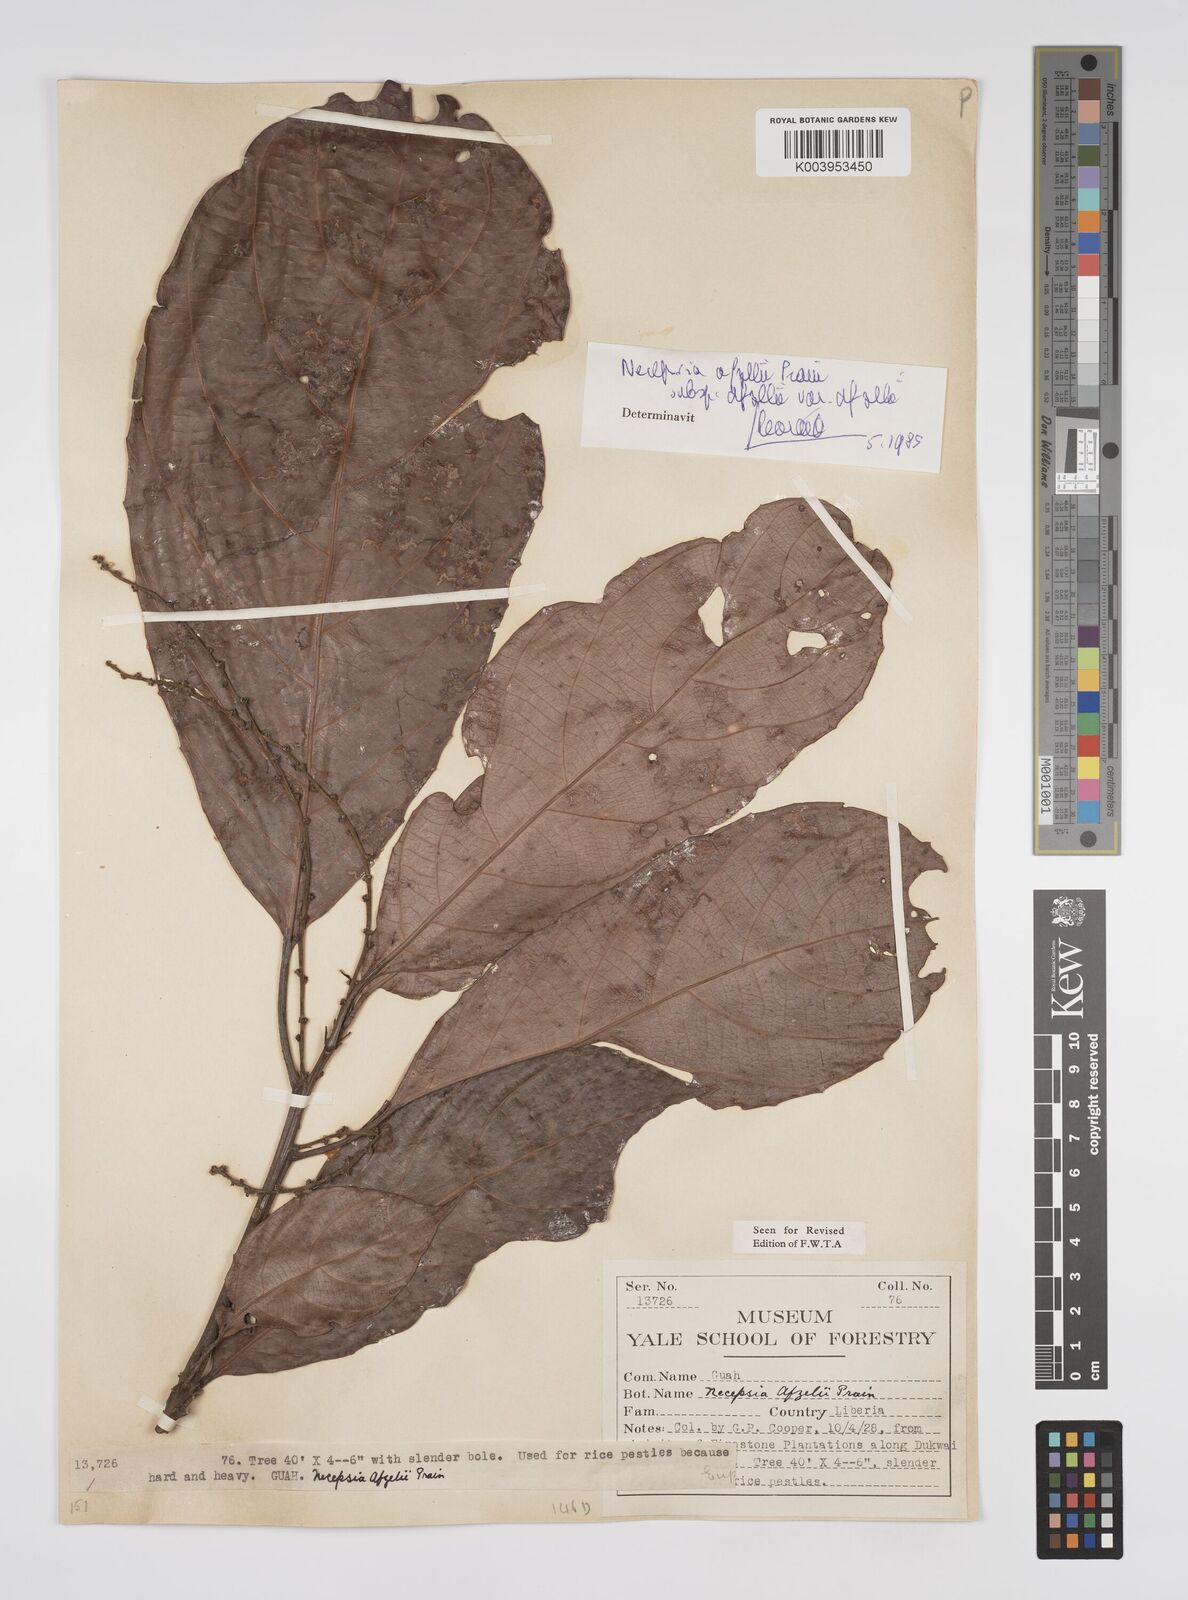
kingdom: Plantae
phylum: Tracheophyta
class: Magnoliopsida
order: Malpighiales
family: Euphorbiaceae
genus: Necepsia
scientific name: Necepsia afzelii
